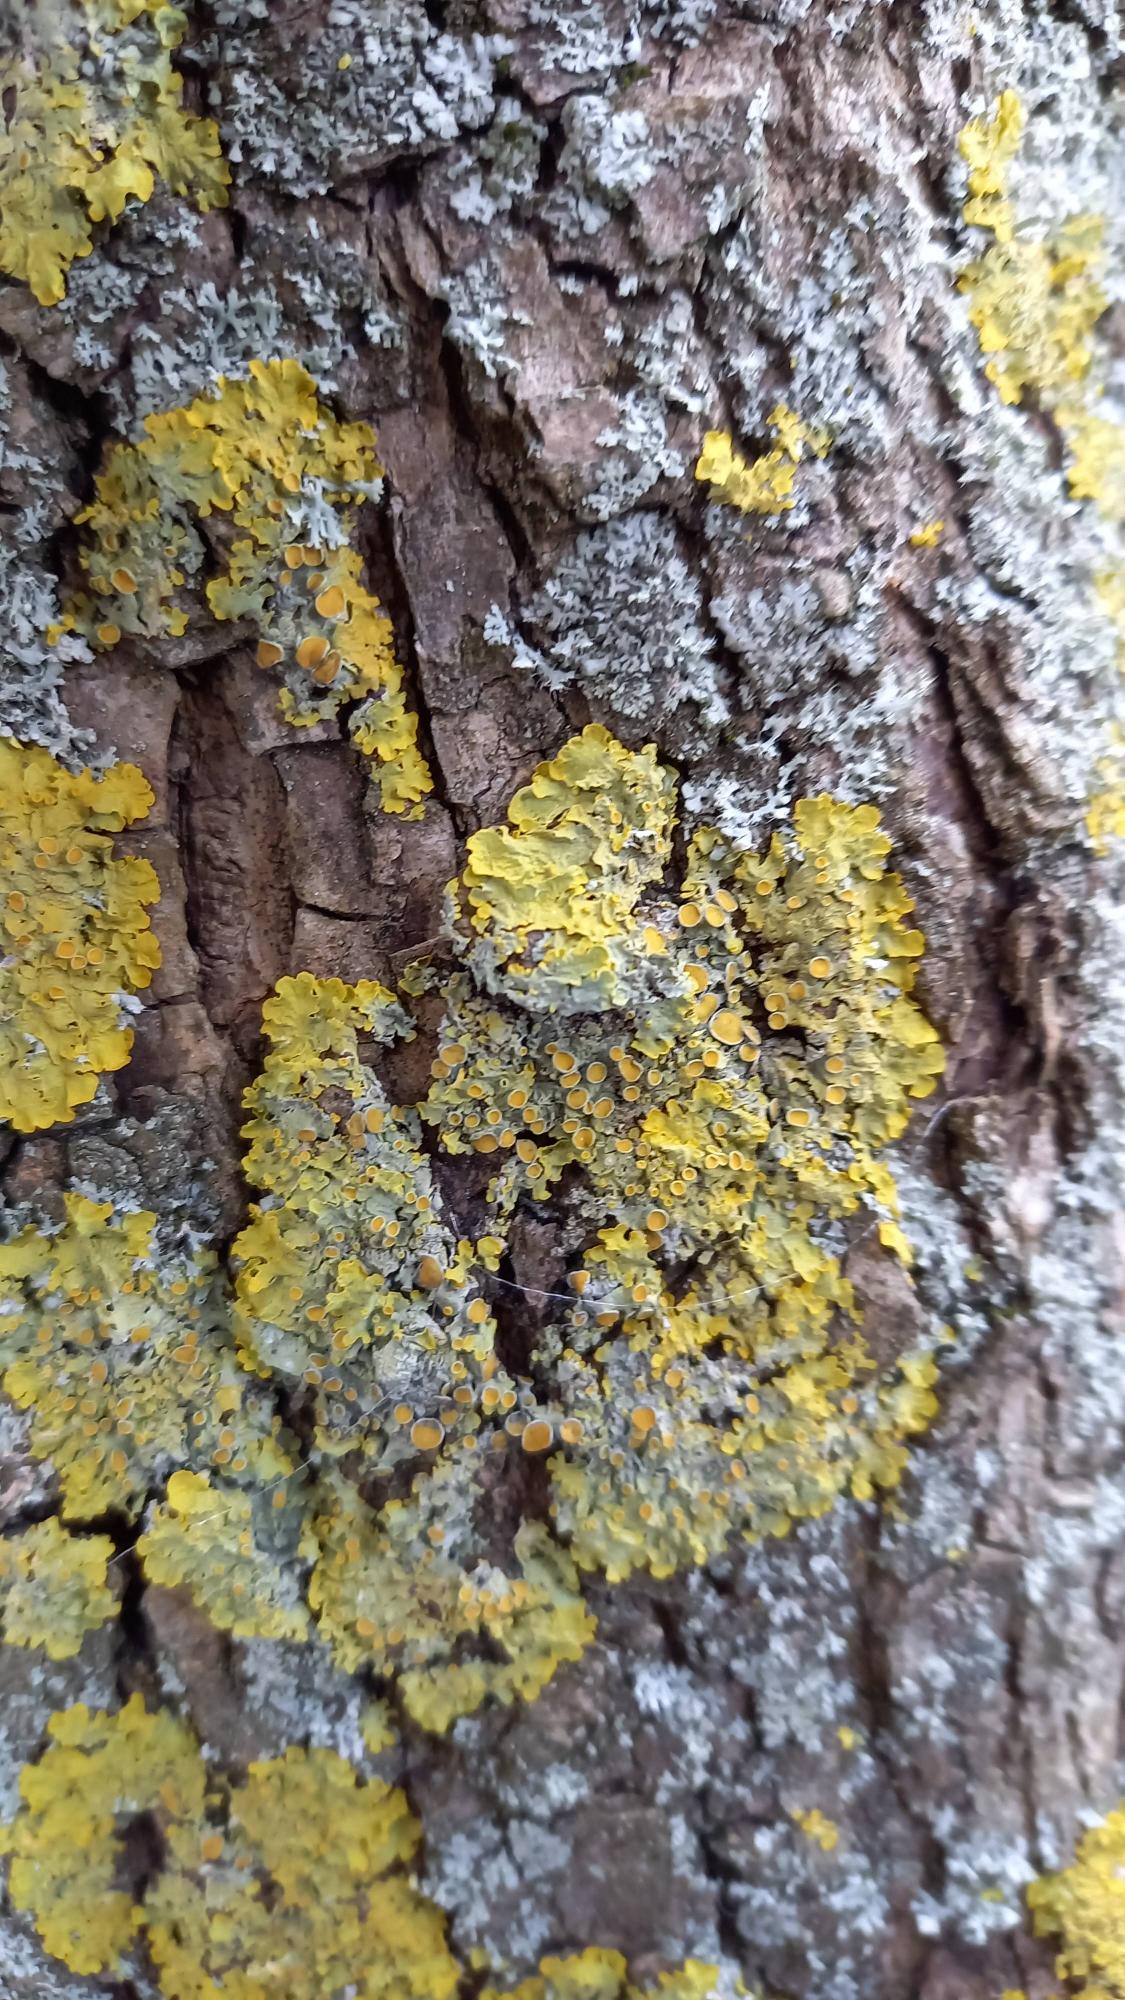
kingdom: Fungi
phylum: Ascomycota
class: Lecanoromycetes
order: Teloschistales
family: Teloschistaceae
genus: Xanthoria
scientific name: Xanthoria parietina
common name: Almindelig væggelav
